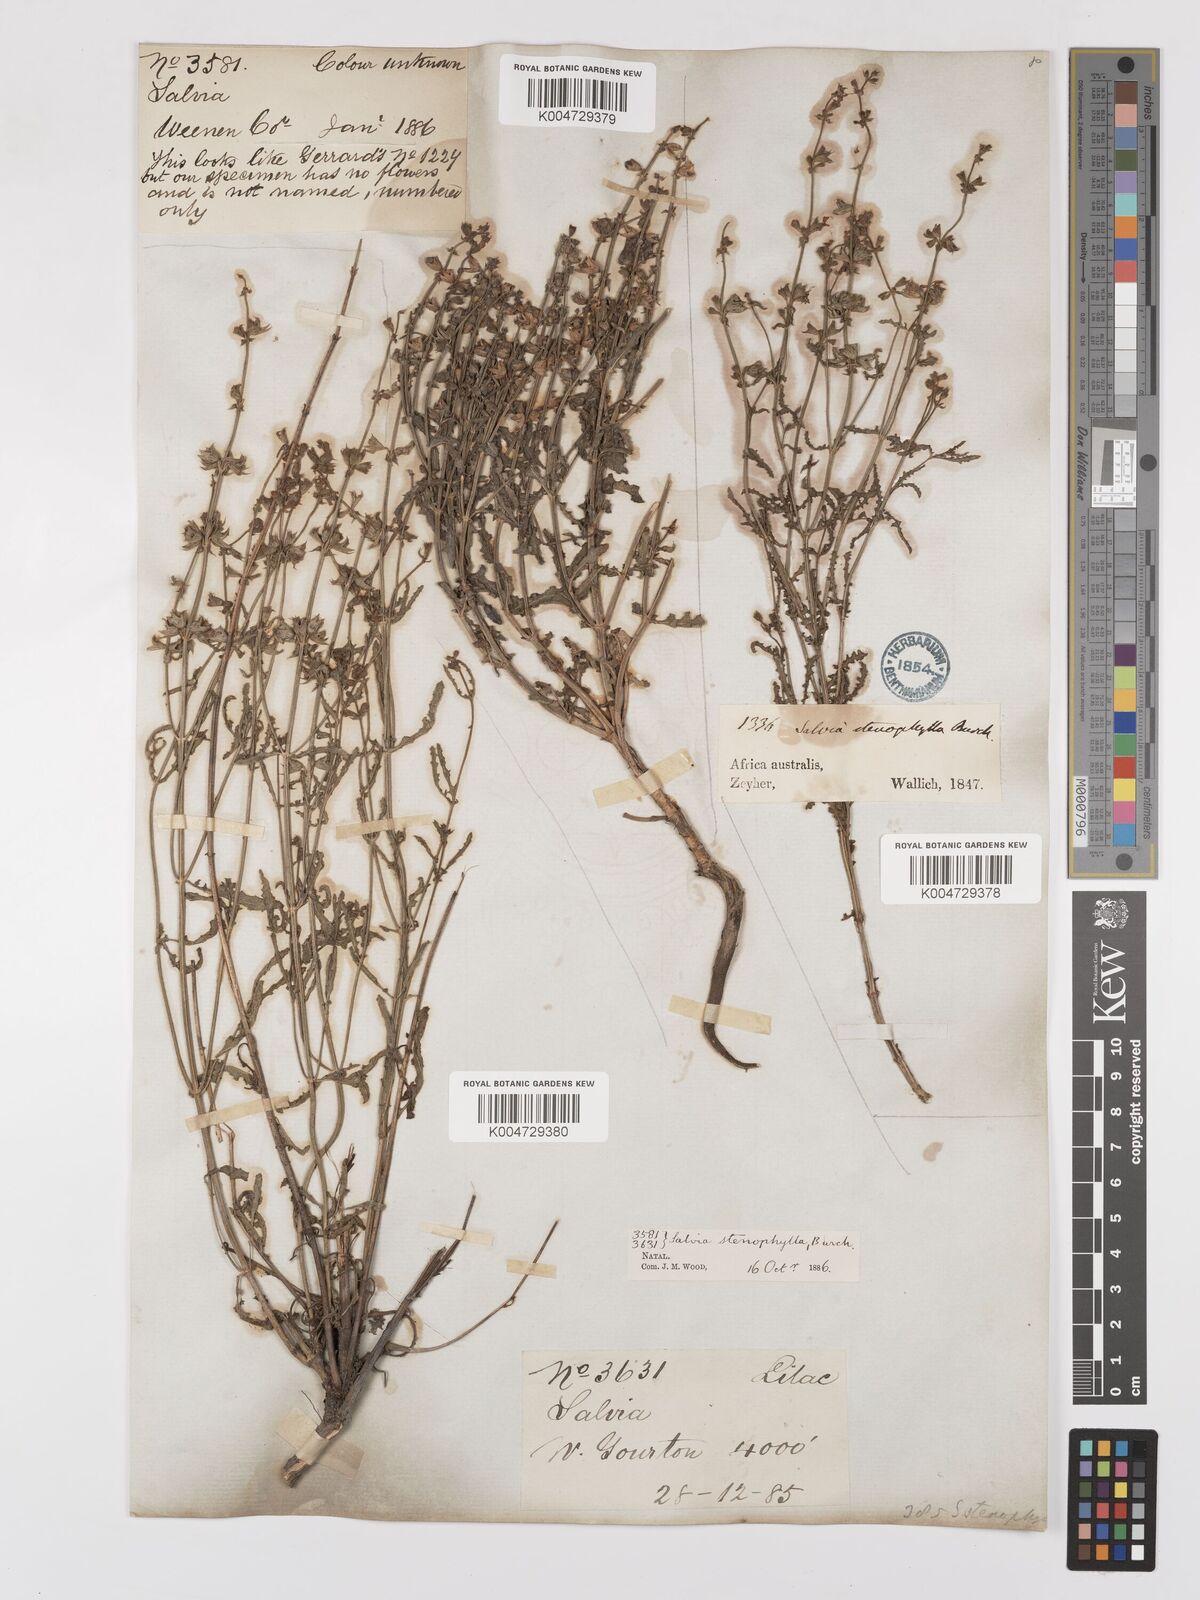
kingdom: Plantae
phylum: Tracheophyta
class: Magnoliopsida
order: Lamiales
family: Lamiaceae
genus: Salvia
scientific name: Salvia stenophylla
